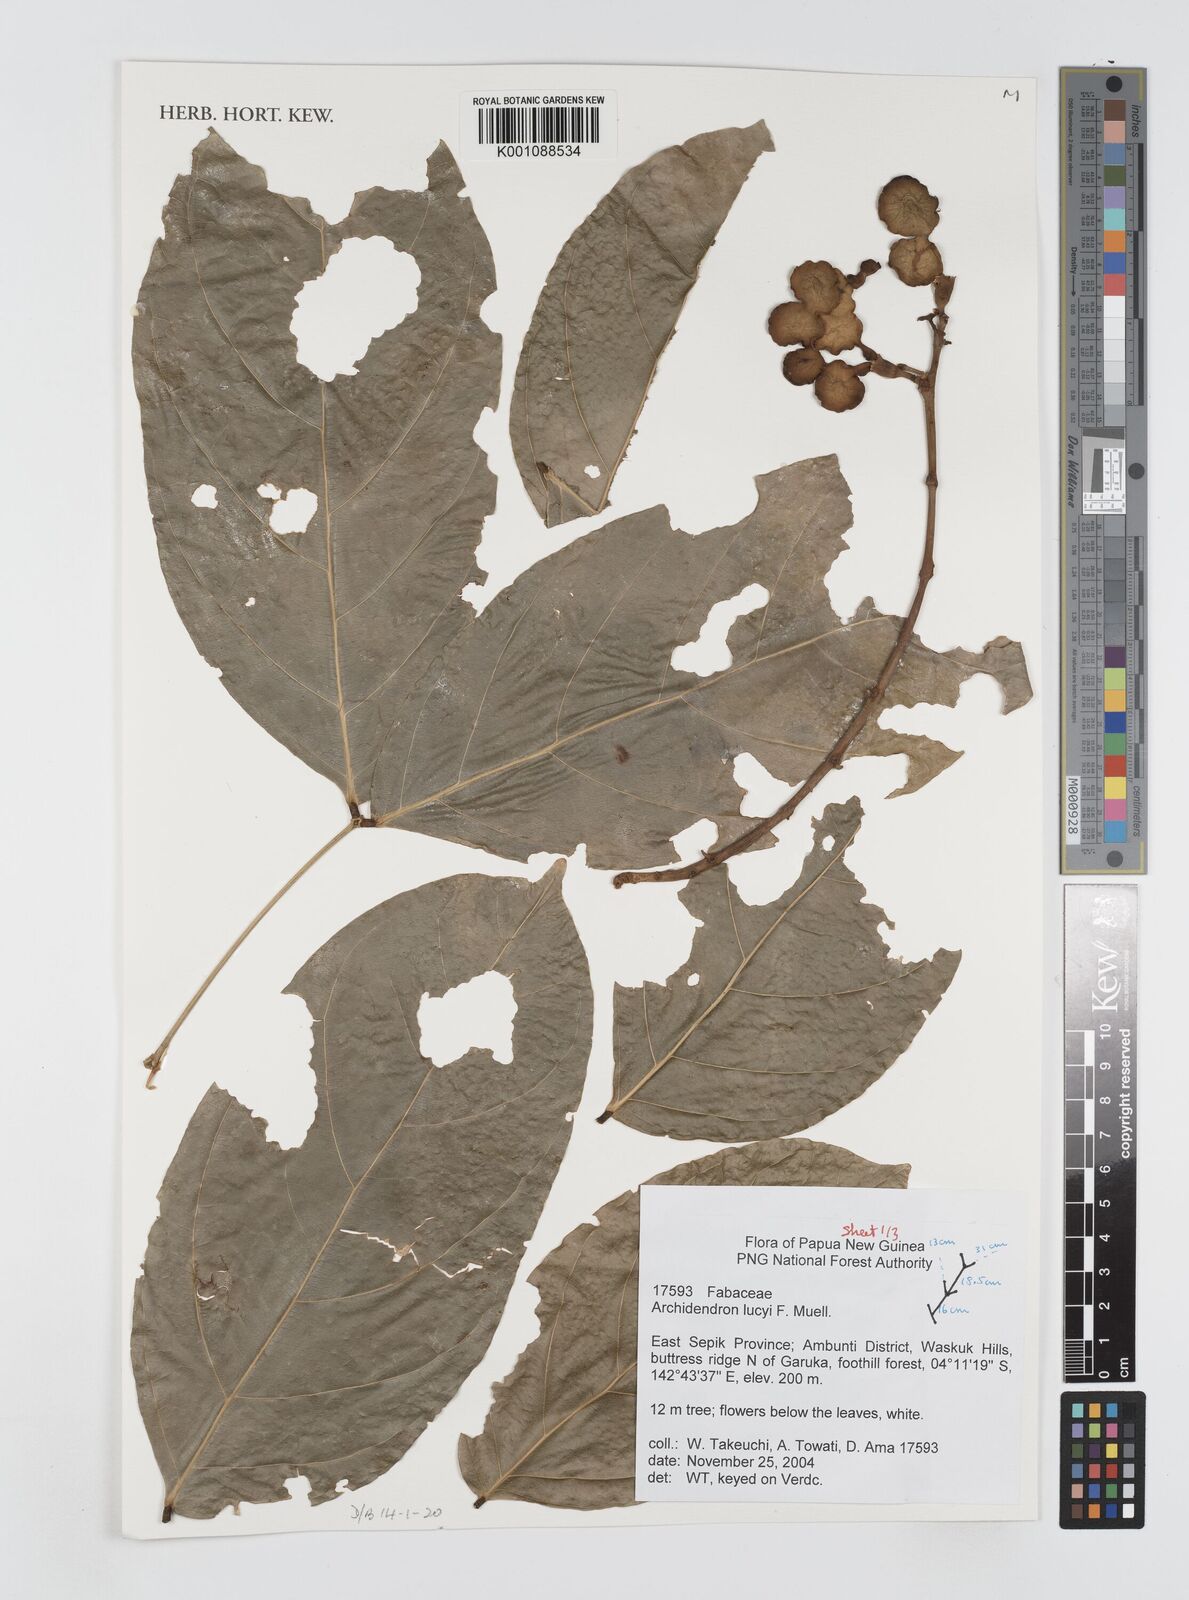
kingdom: Plantae
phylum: Tracheophyta
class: Magnoliopsida
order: Fabales
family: Fabaceae
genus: Archidendron
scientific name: Archidendron lucyi
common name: Scarlet bean
